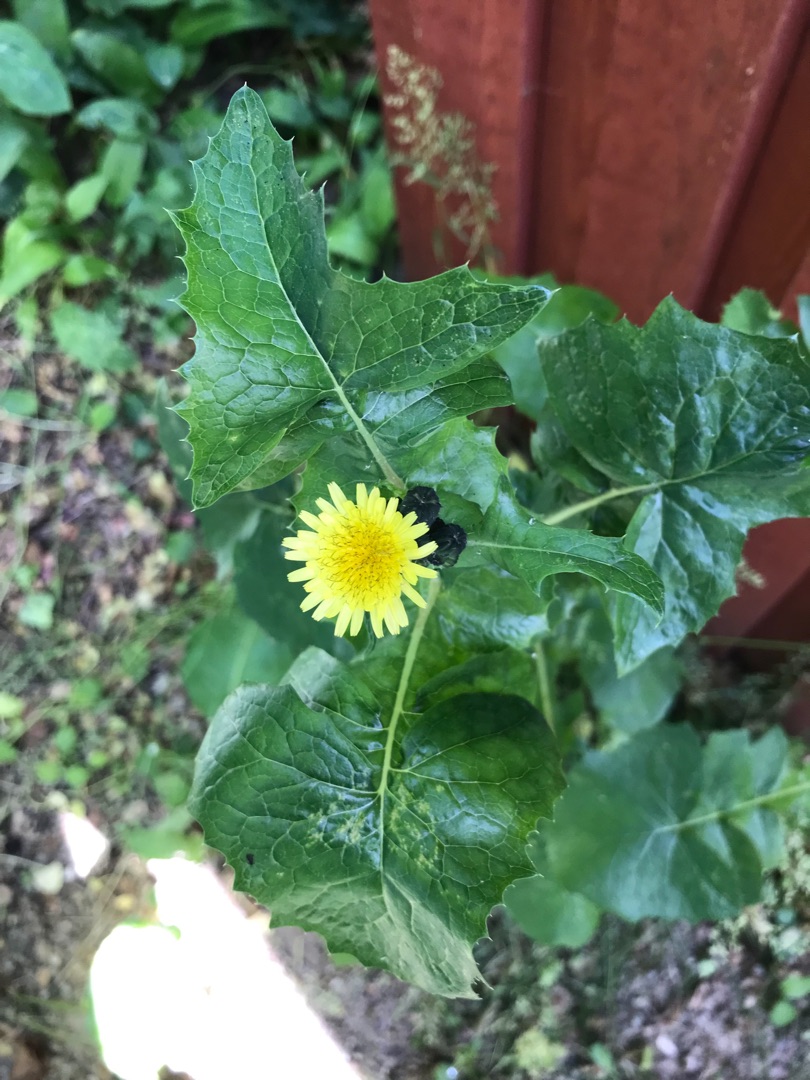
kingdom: Plantae
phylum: Tracheophyta
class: Magnoliopsida
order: Asterales
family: Asteraceae
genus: Sonchus
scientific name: Sonchus oleraceus
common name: Almindelig svinemælk
